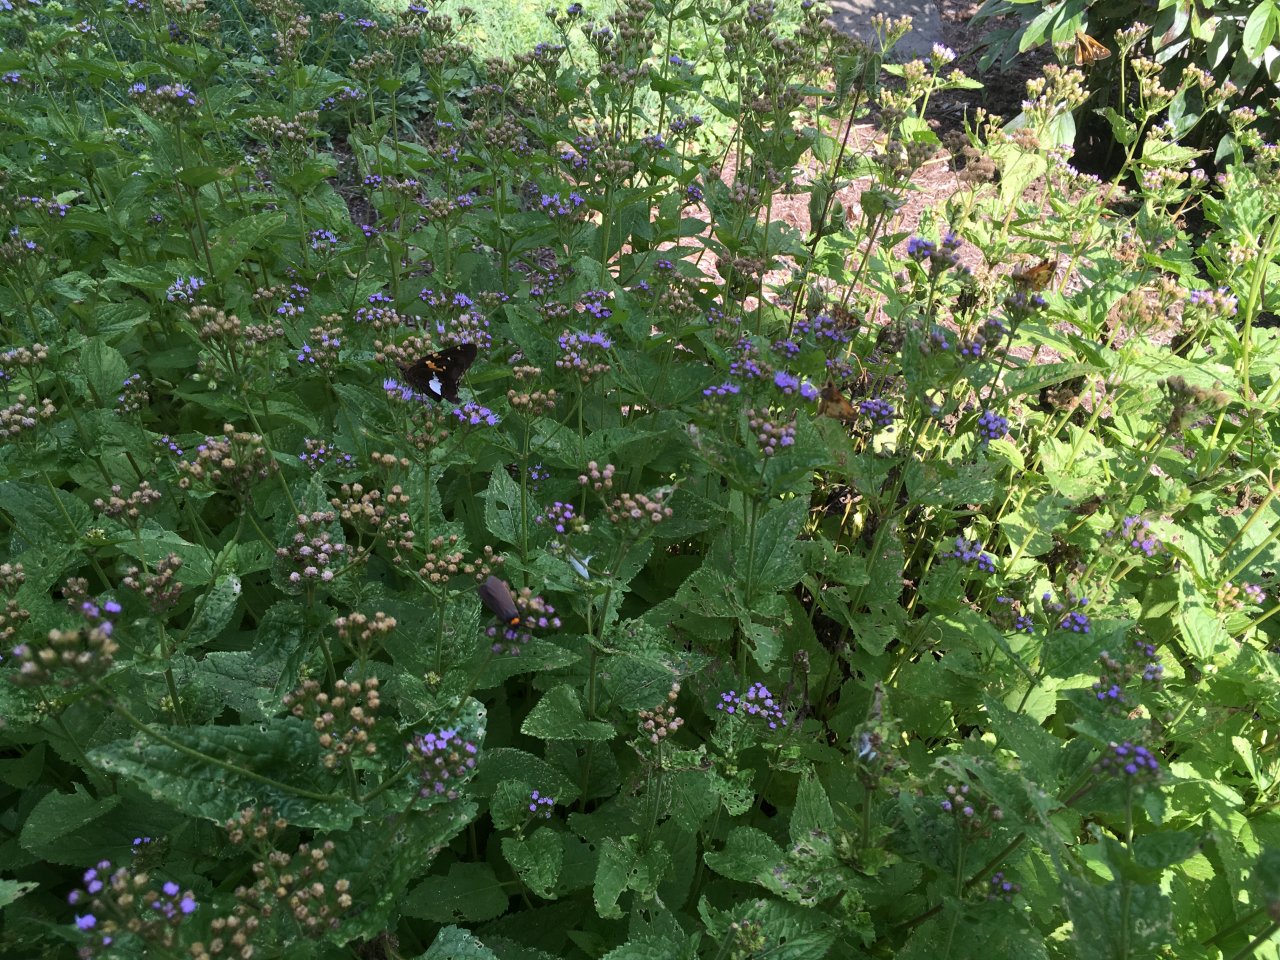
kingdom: Animalia
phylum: Arthropoda
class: Insecta
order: Lepidoptera
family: Hesperiidae
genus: Polites
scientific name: Polites coras
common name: Peck's Skipper
